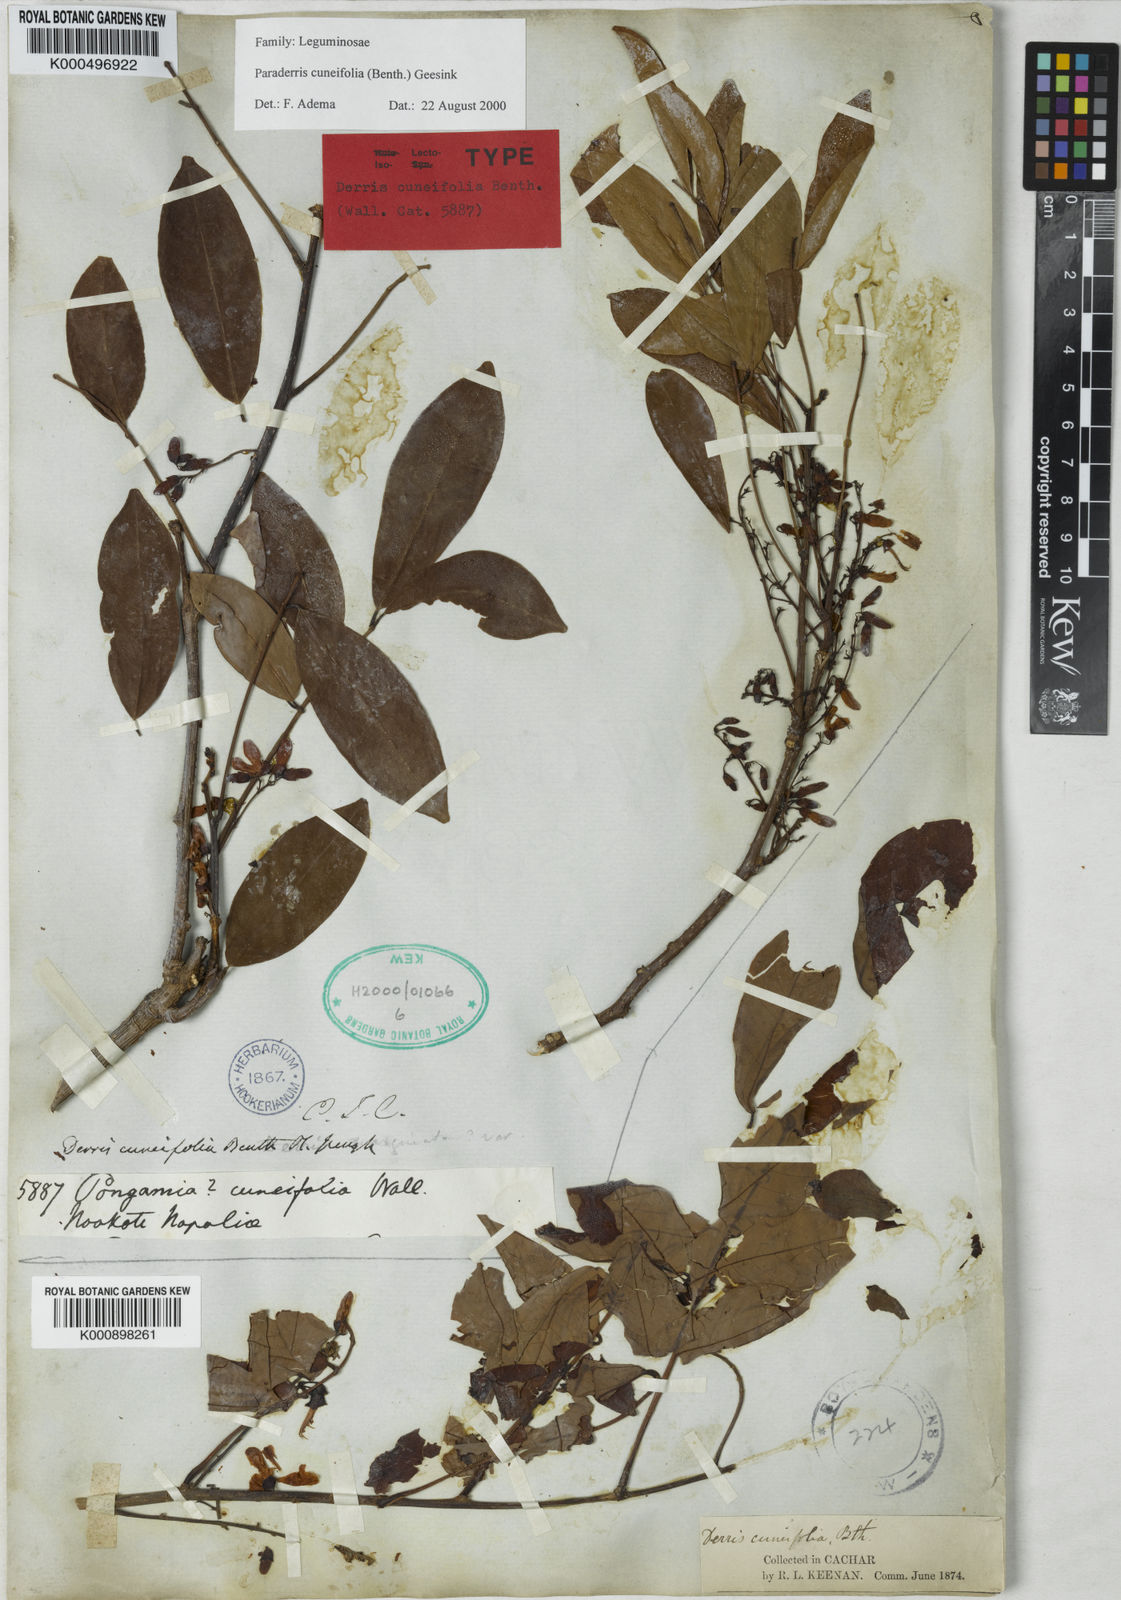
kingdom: Plantae
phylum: Tracheophyta
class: Magnoliopsida
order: Fabales
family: Fabaceae
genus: Derris
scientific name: Derris cuneifolia
